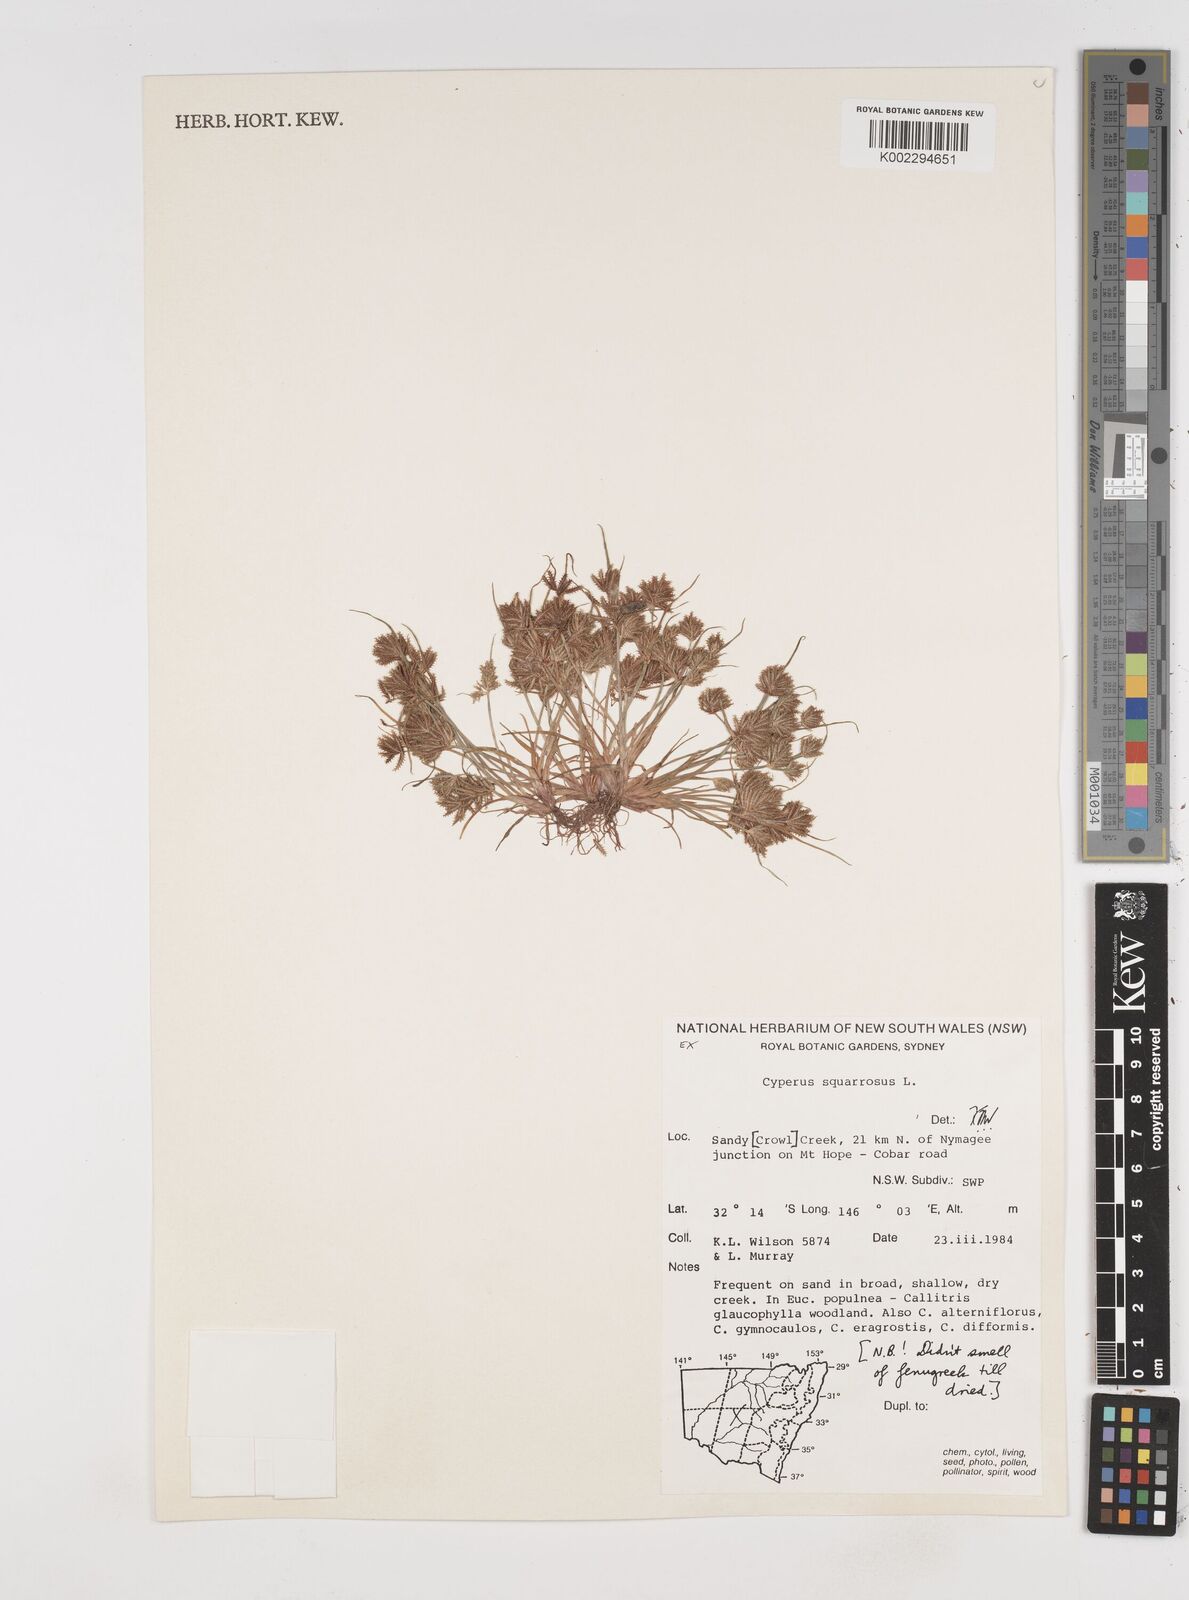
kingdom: Plantae
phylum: Tracheophyta
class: Liliopsida
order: Poales
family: Cyperaceae
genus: Cyperus
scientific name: Cyperus squarrosus
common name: Awned cyperus
